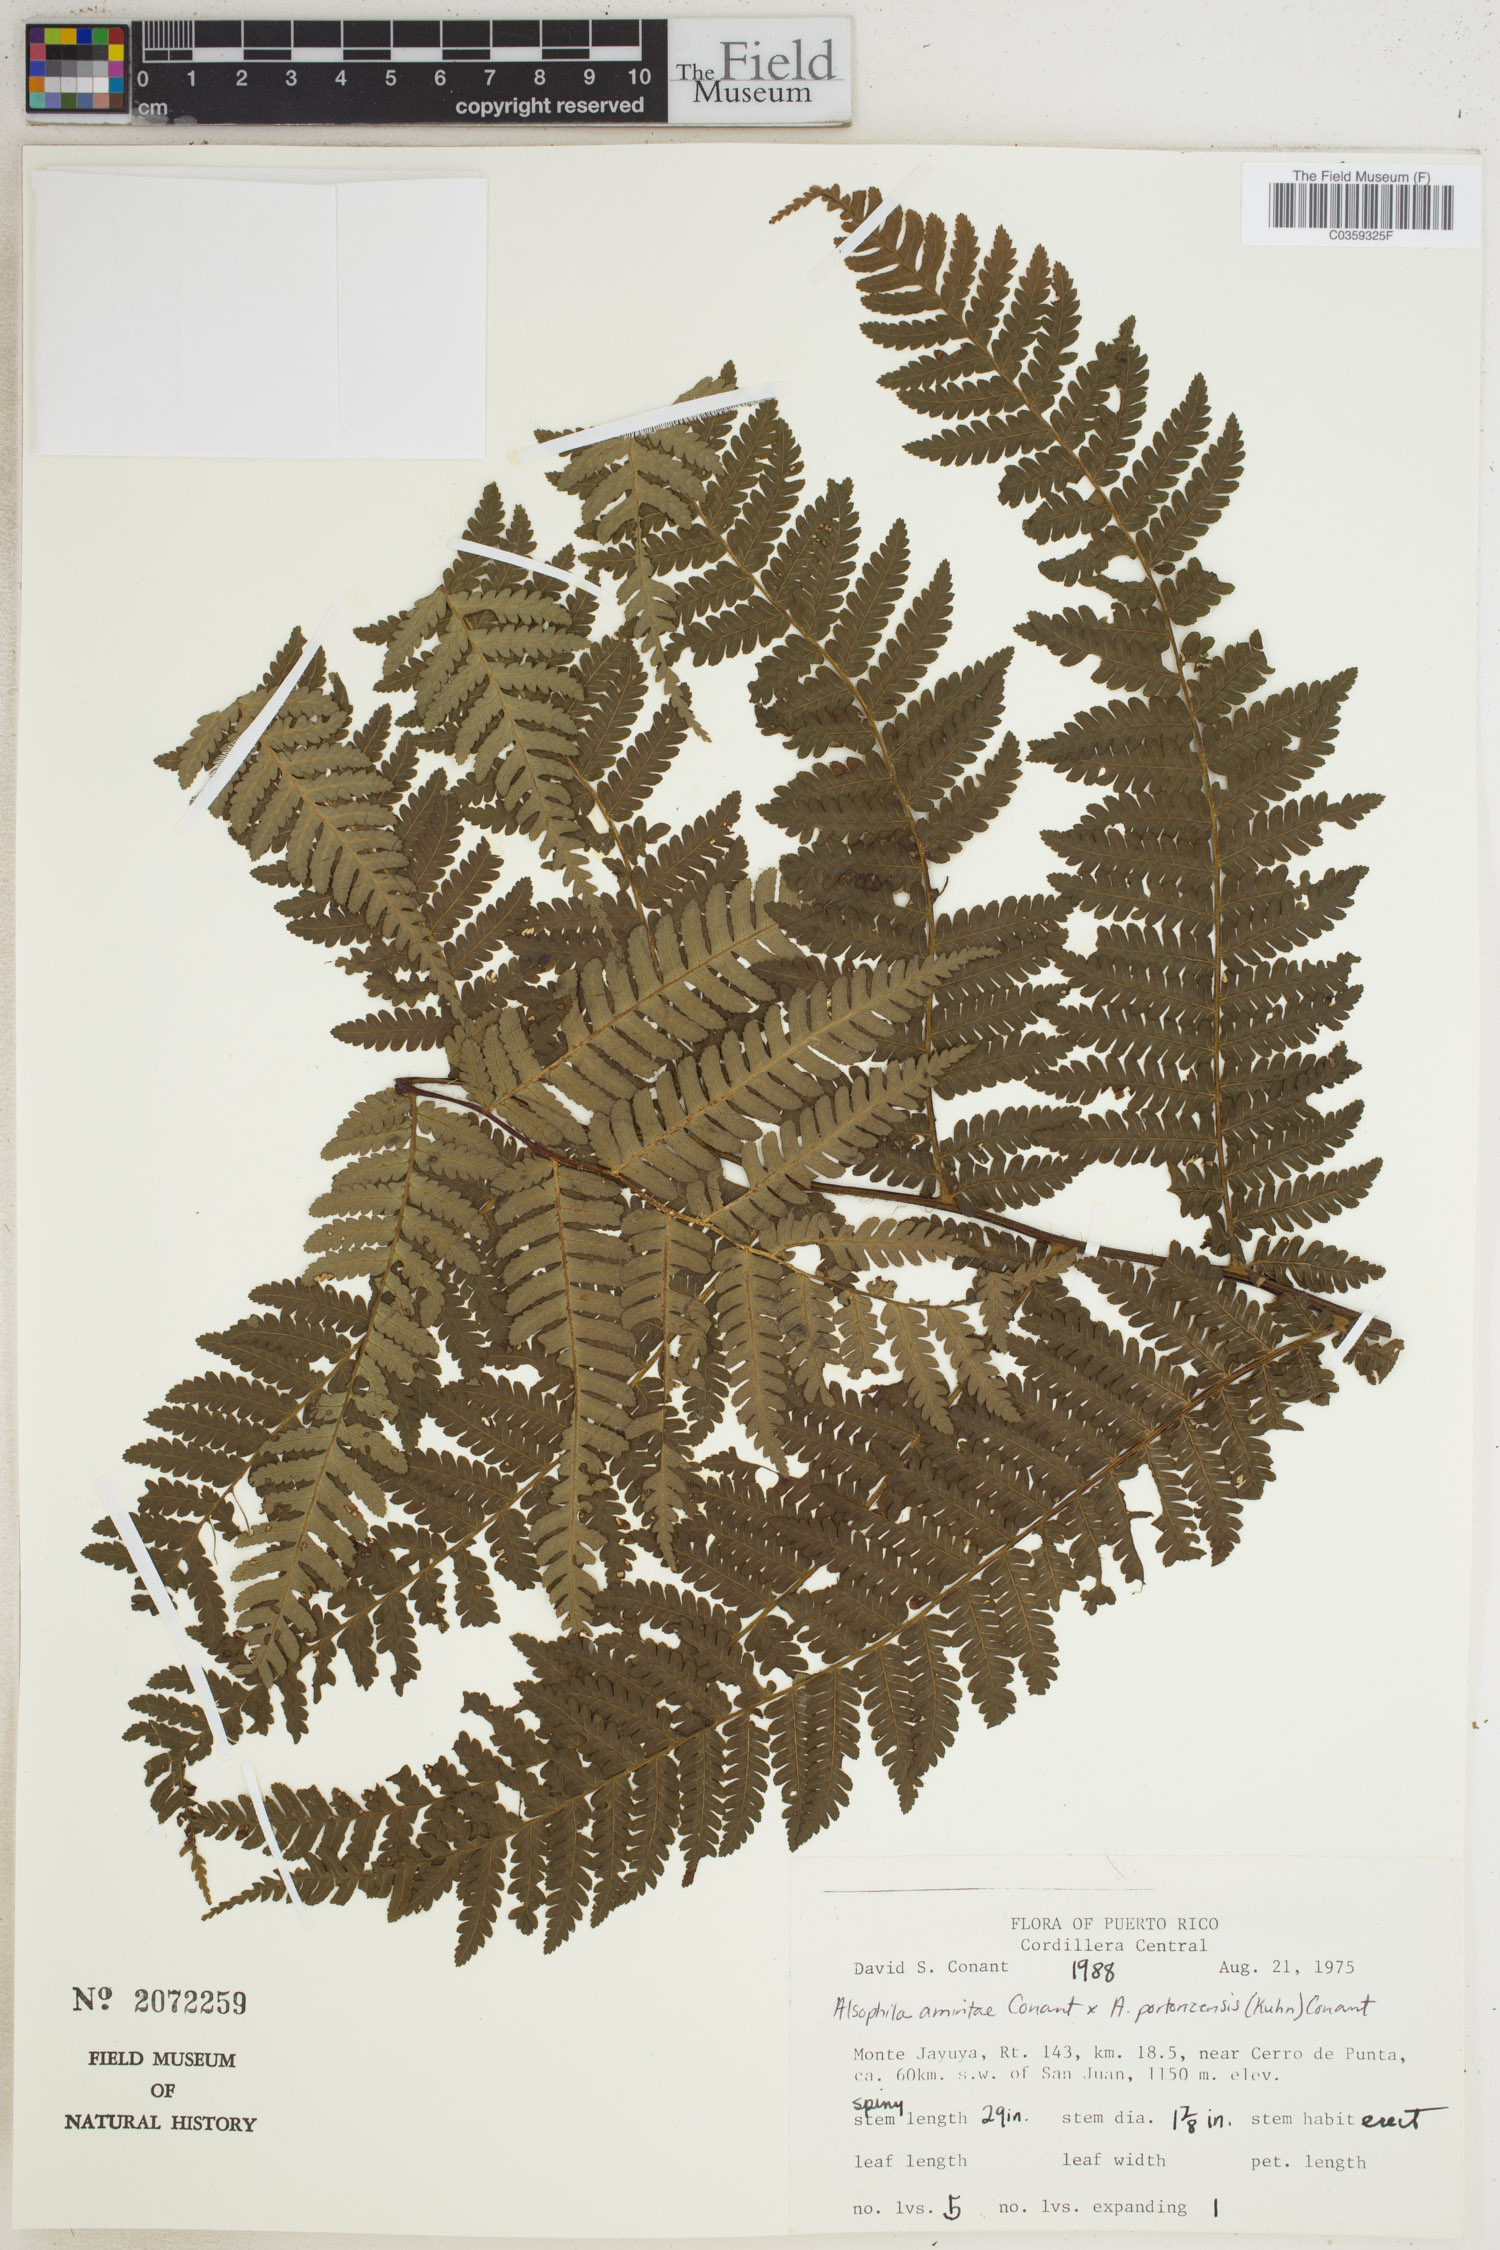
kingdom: Plantae
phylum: Tracheophyta
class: Polypodiopsida
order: Cyatheales
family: Cyatheaceae
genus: Alsophila
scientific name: Alsophila
